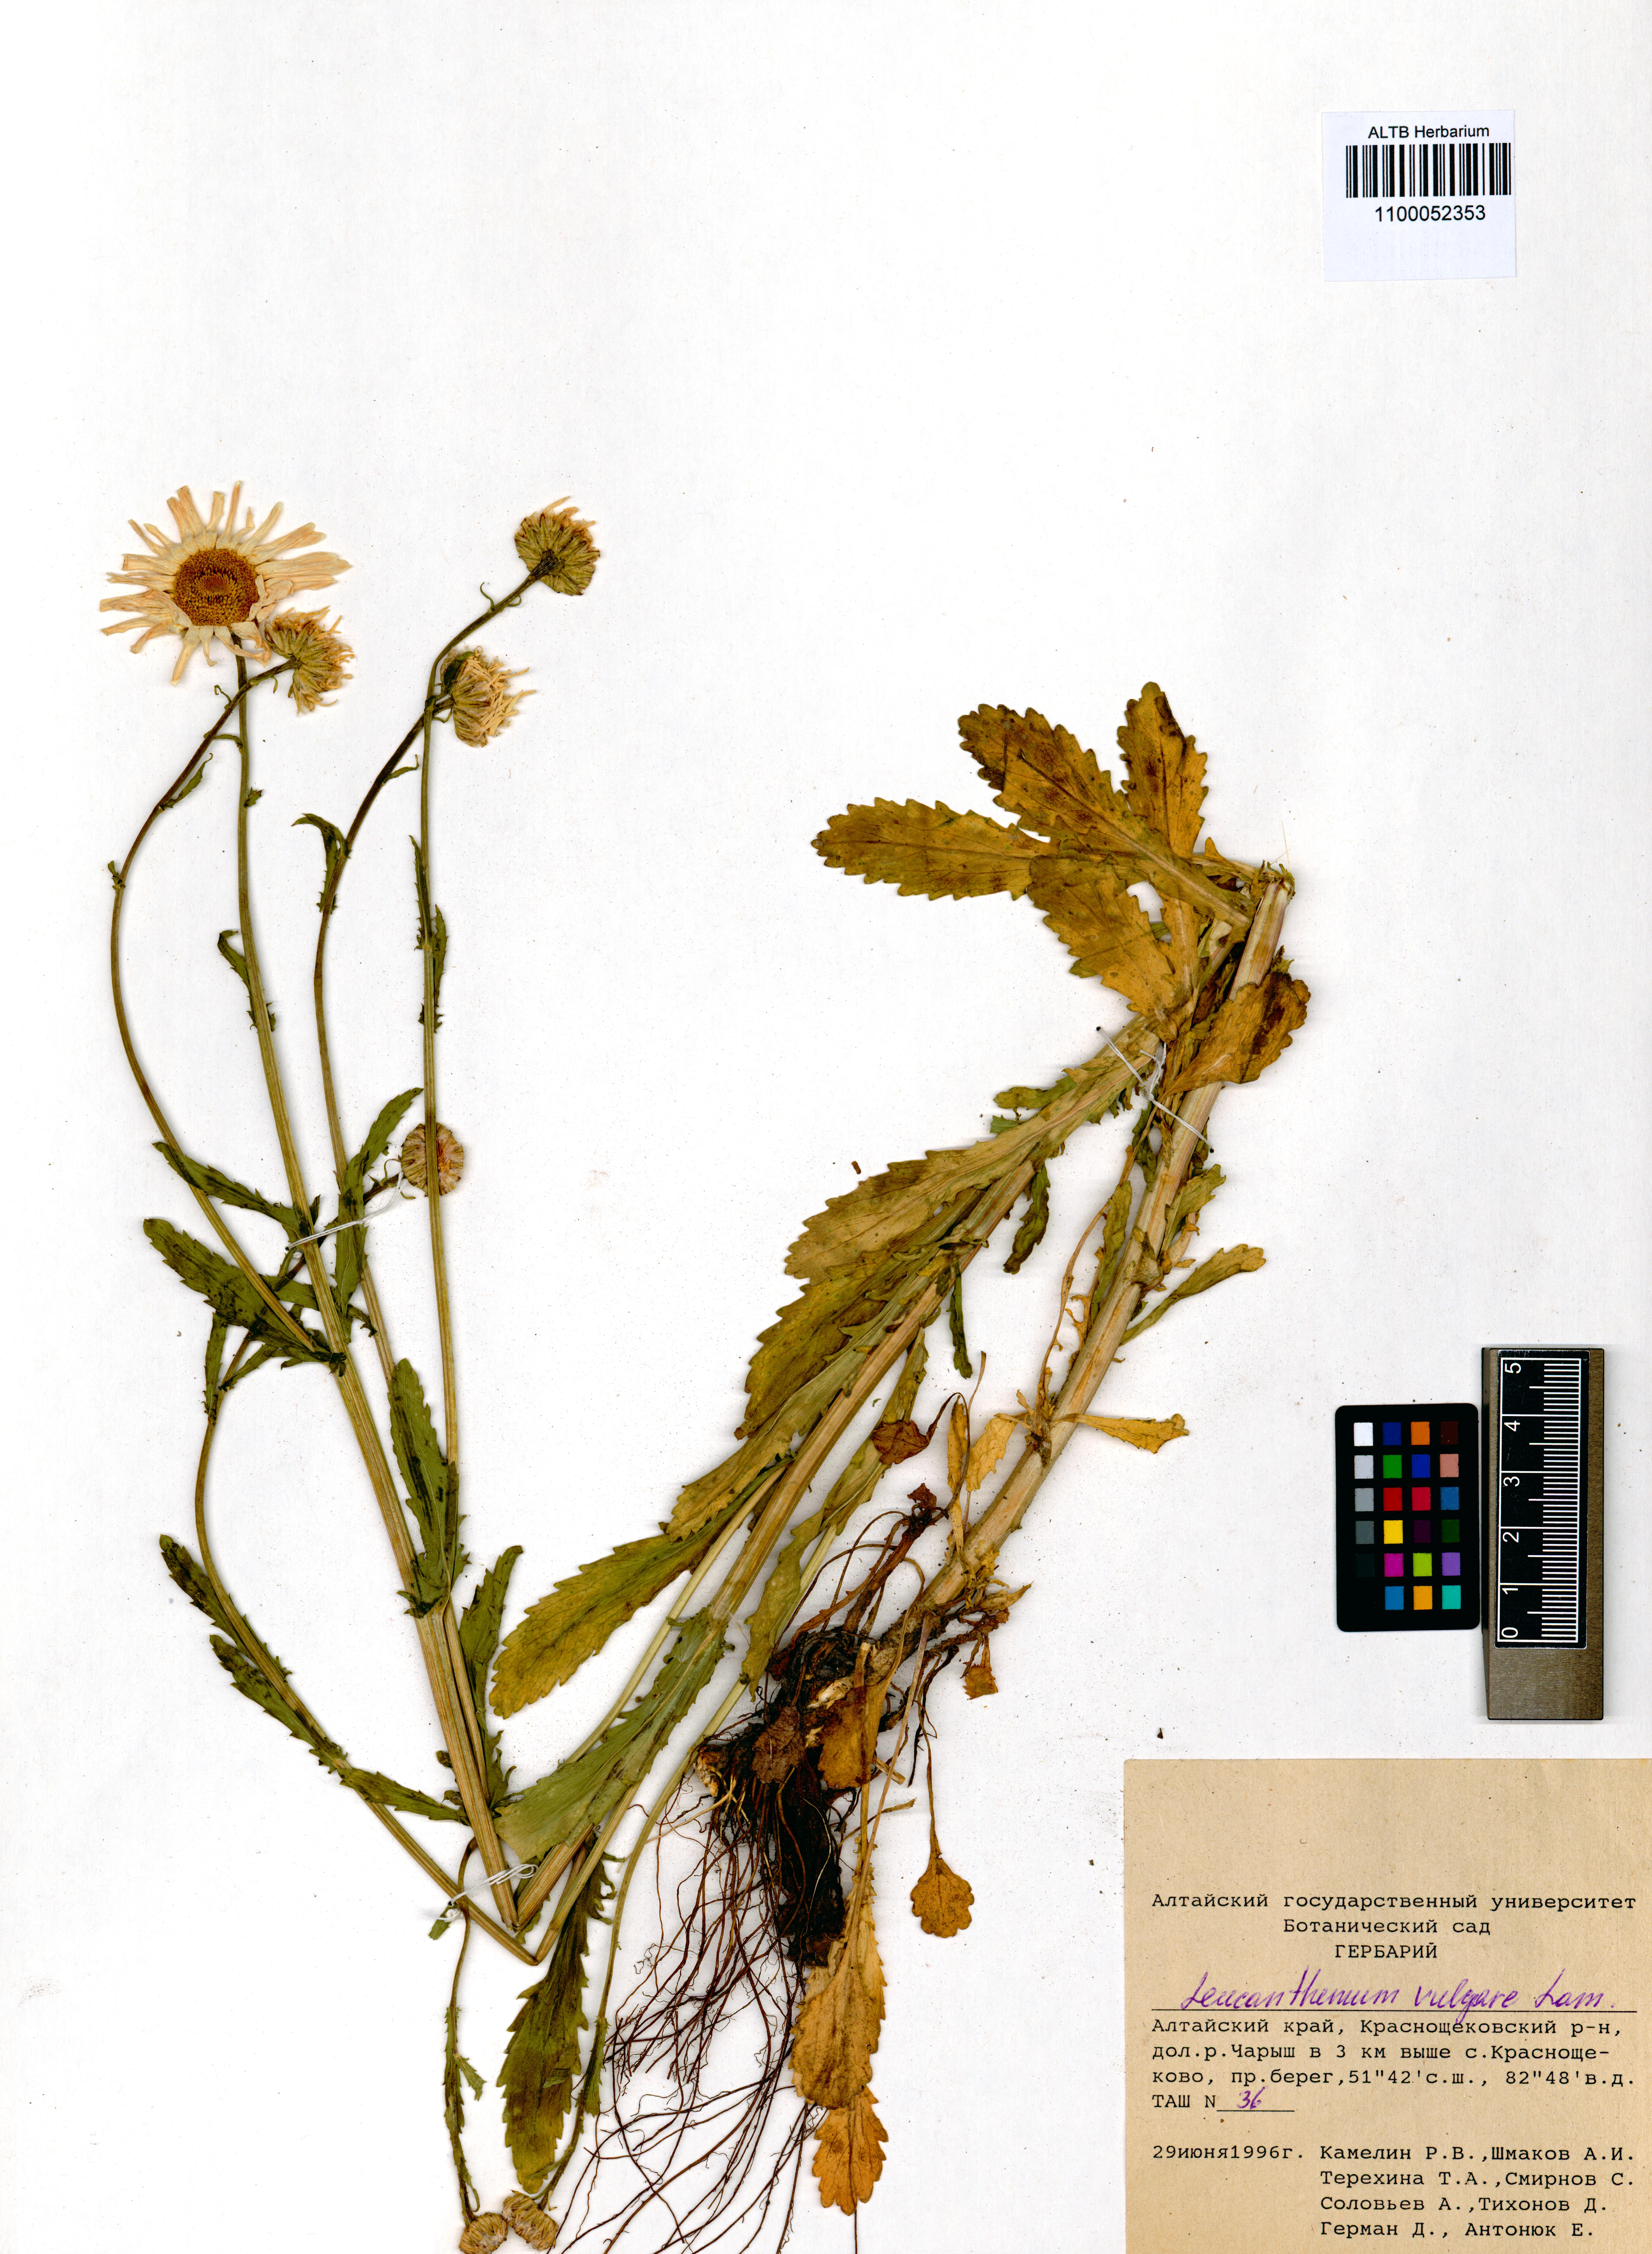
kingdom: Plantae
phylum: Tracheophyta
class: Magnoliopsida
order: Asterales
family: Asteraceae
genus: Leucanthemum
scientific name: Leucanthemum vulgare
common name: Oxeye daisy
